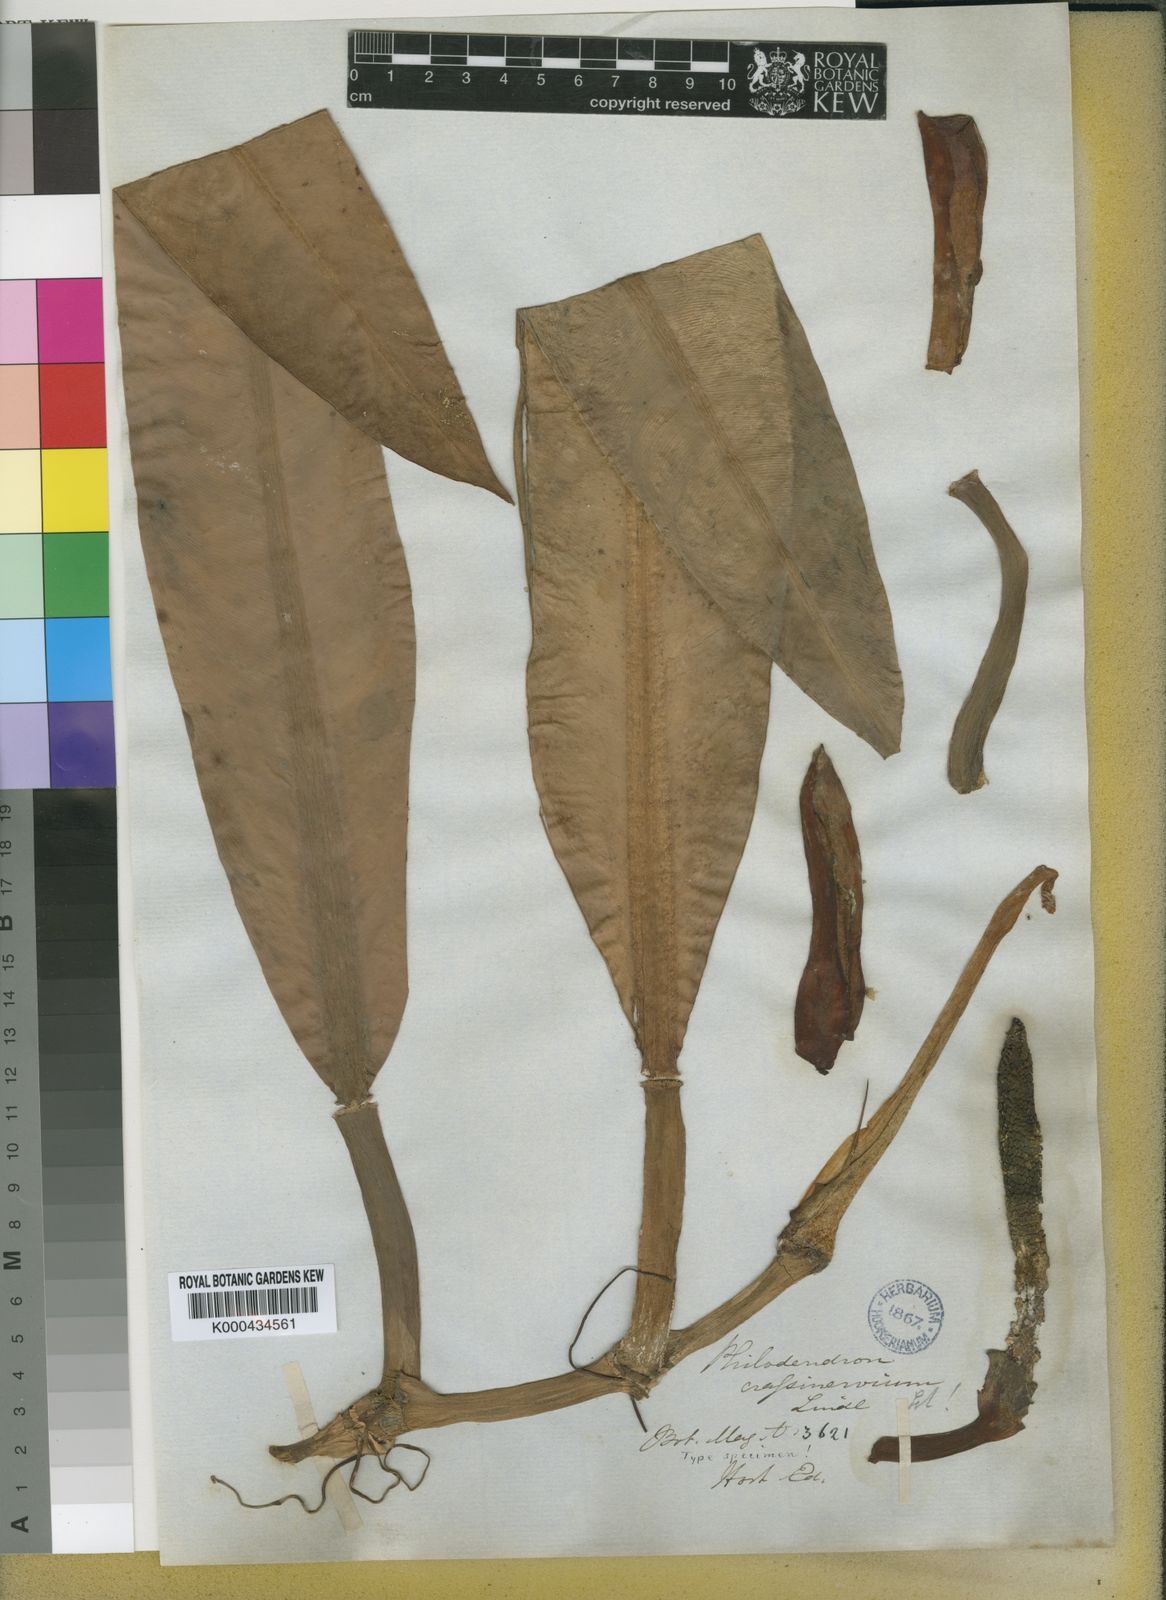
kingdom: Plantae
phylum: Tracheophyta
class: Liliopsida
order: Alismatales
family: Araceae
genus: Philodendron
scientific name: Philodendron crassinervium
